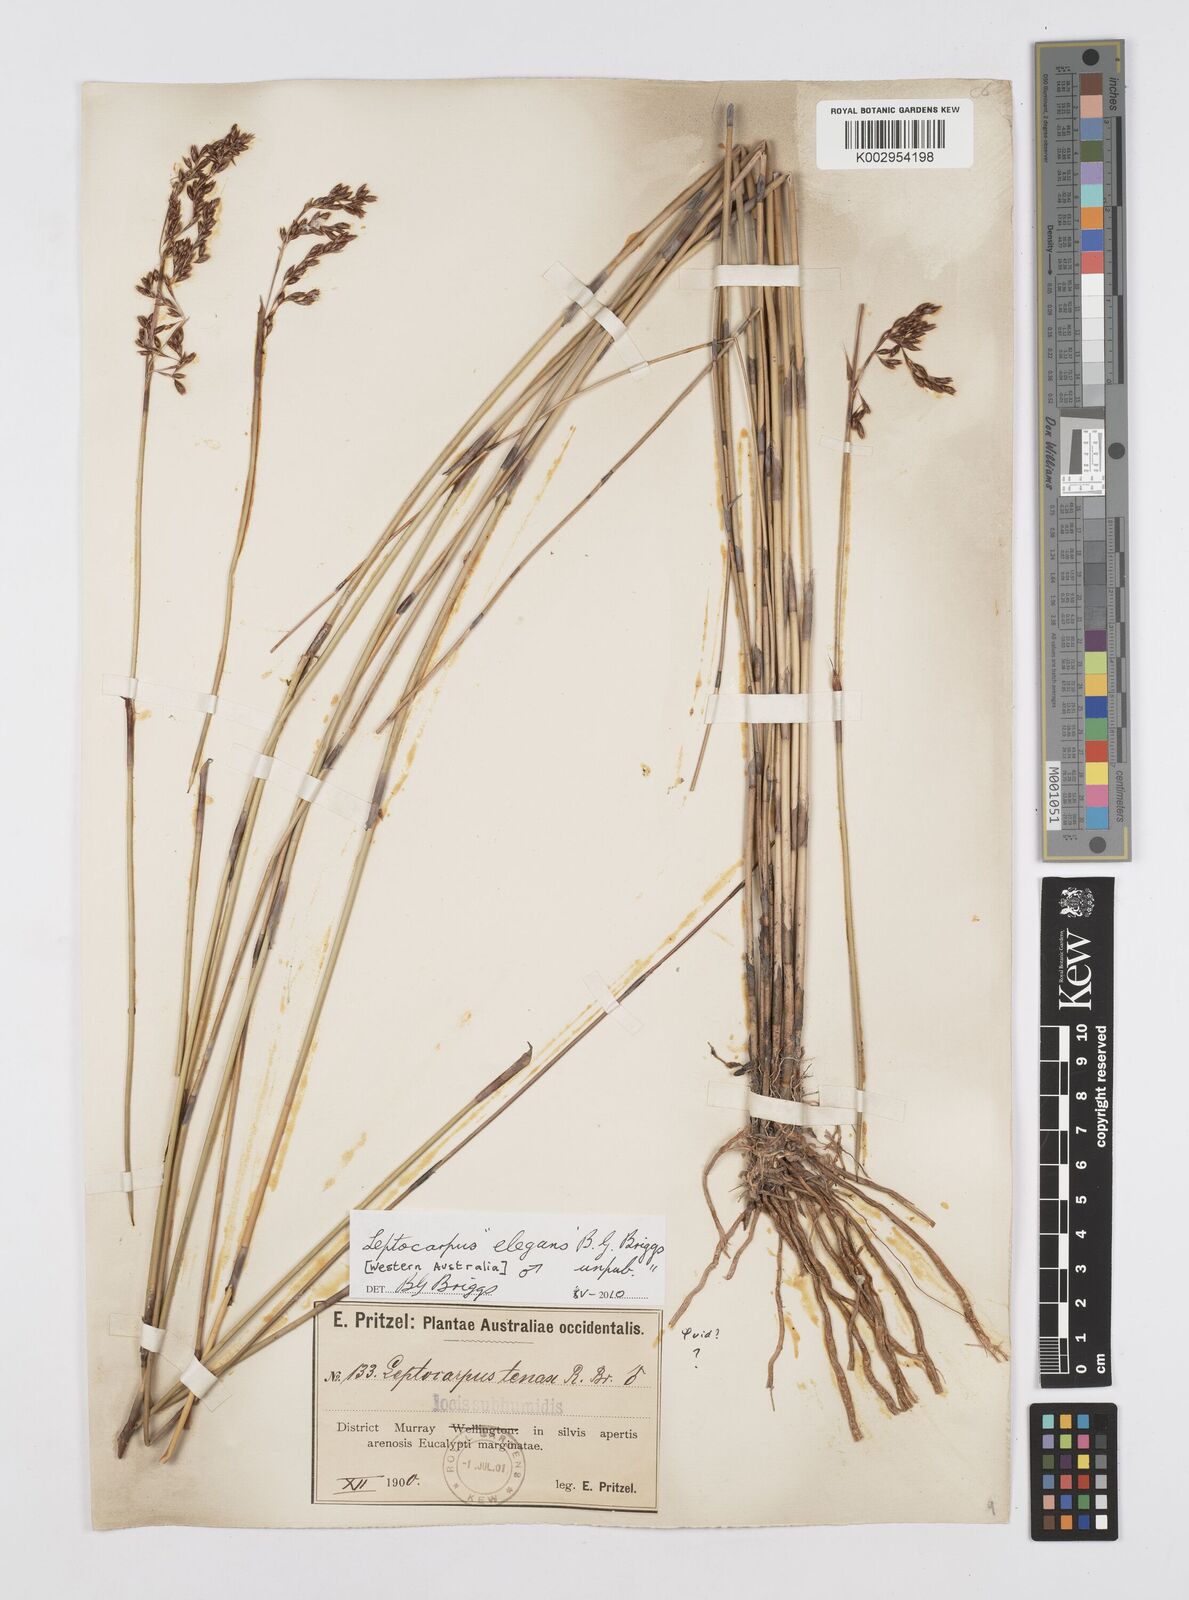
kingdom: Plantae
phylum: Tracheophyta
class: Liliopsida
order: Poales
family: Restionaceae
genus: Leptocarpus
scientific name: Leptocarpus trisepalus
